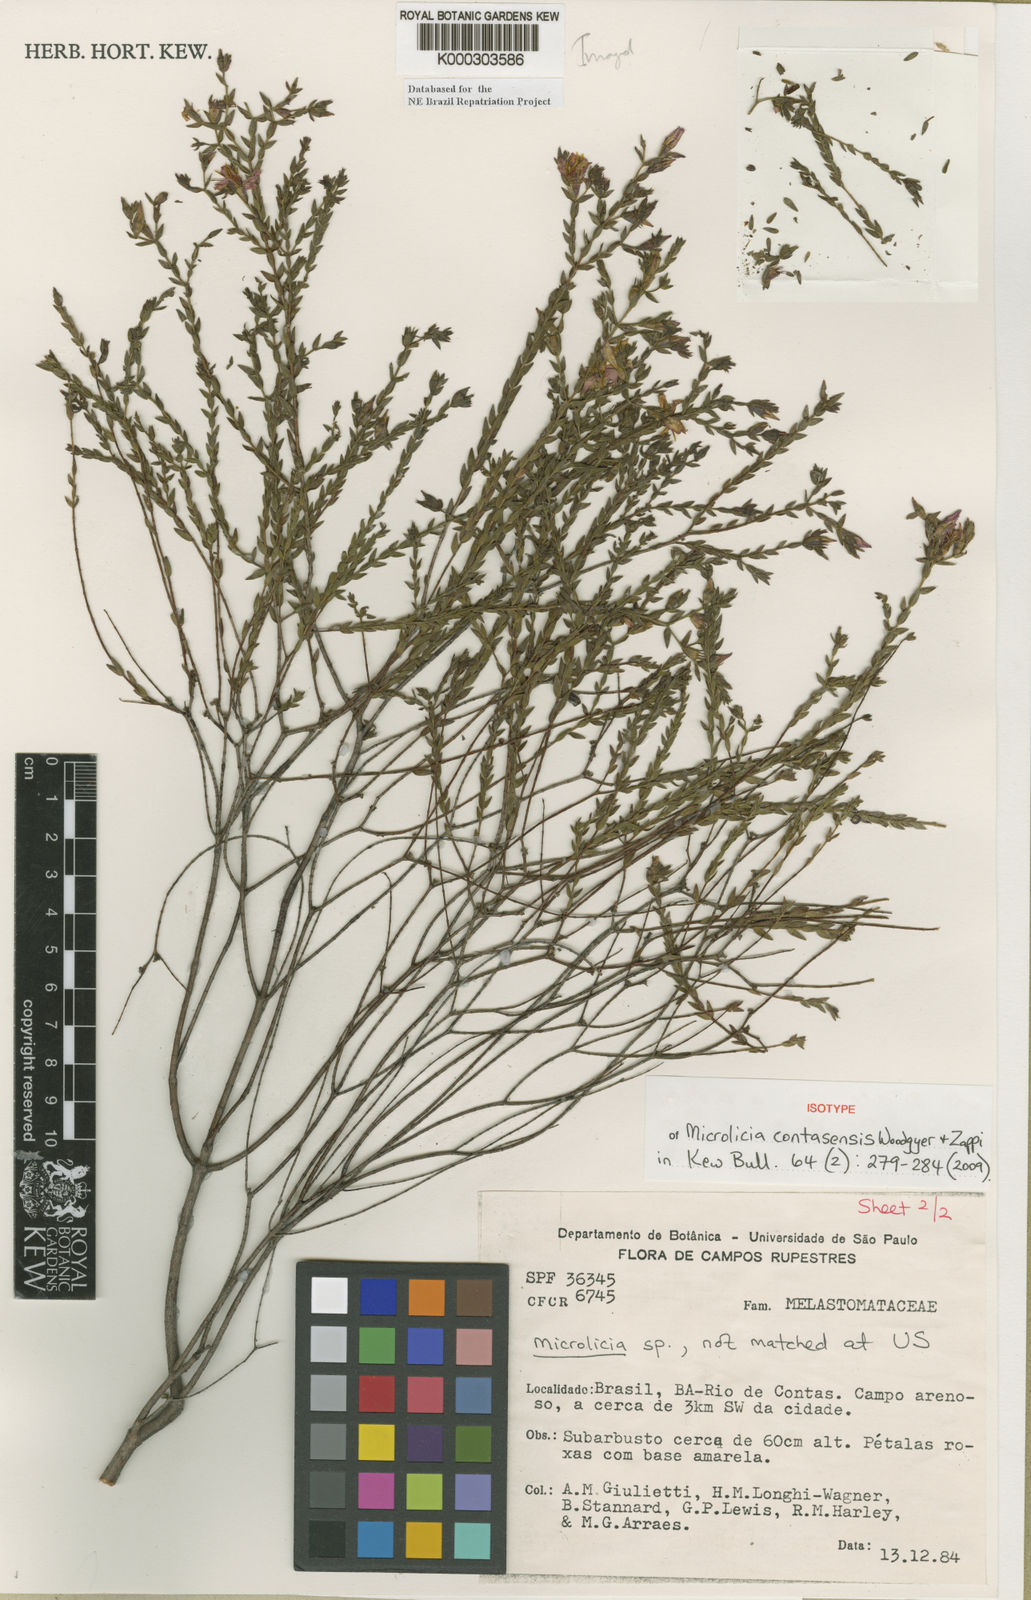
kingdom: Plantae
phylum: Tracheophyta
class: Magnoliopsida
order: Myrtales
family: Melastomataceae
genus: Microlicia
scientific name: Microlicia contasensis
